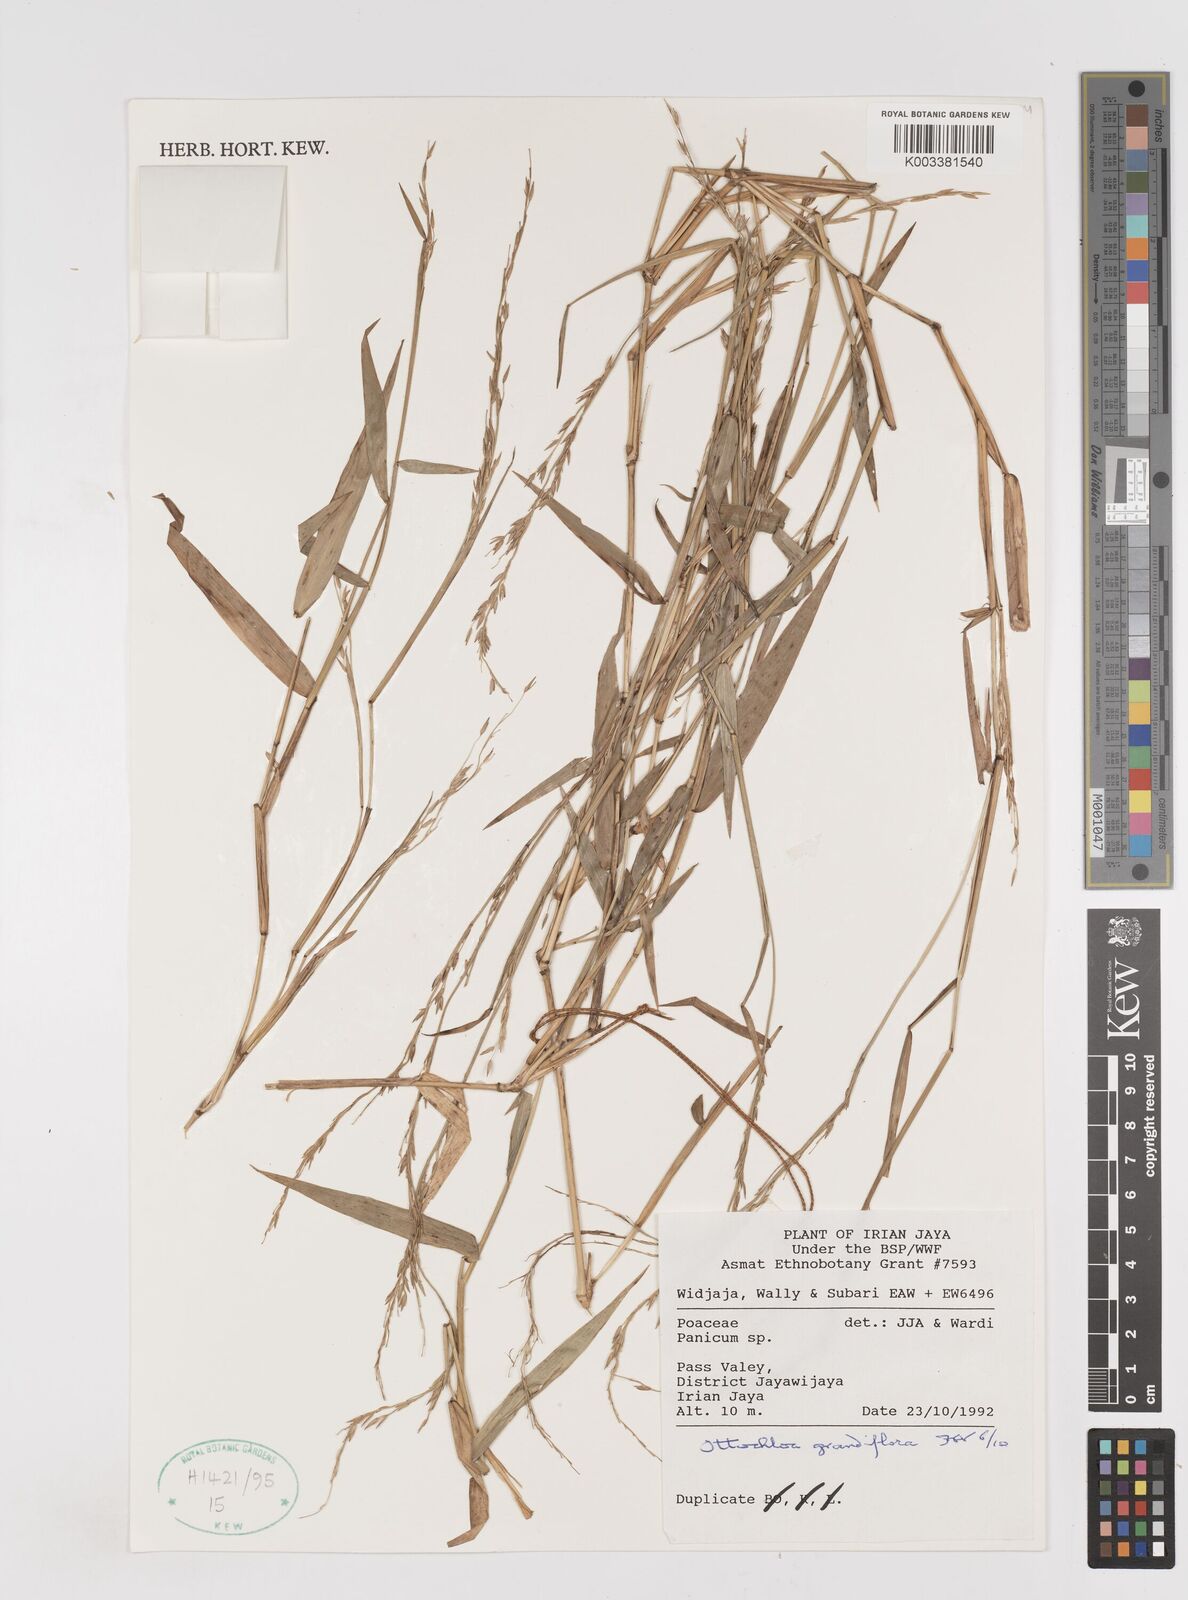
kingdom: Plantae
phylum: Tracheophyta
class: Liliopsida
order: Poales
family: Poaceae
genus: Ottochloa
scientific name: Ottochloa grandiflora
